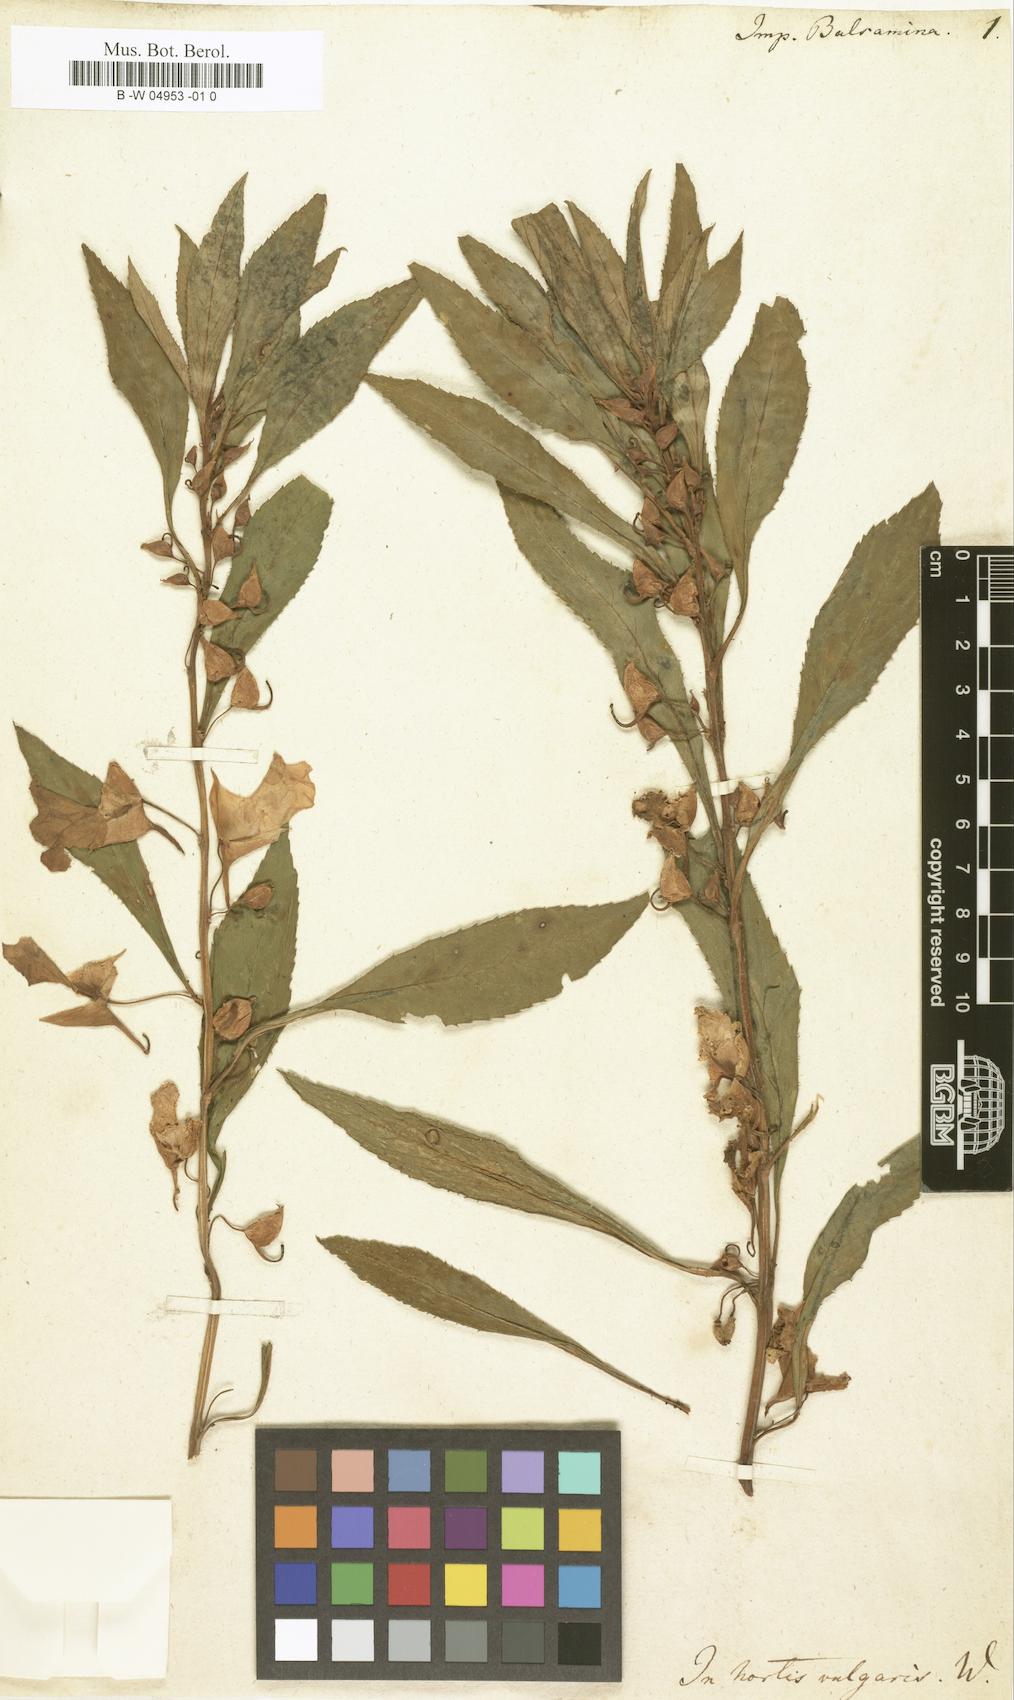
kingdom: Plantae
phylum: Tracheophyta
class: Magnoliopsida
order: Ericales
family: Balsaminaceae
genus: Impatiens
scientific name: Impatiens balsamina
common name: Balsam
